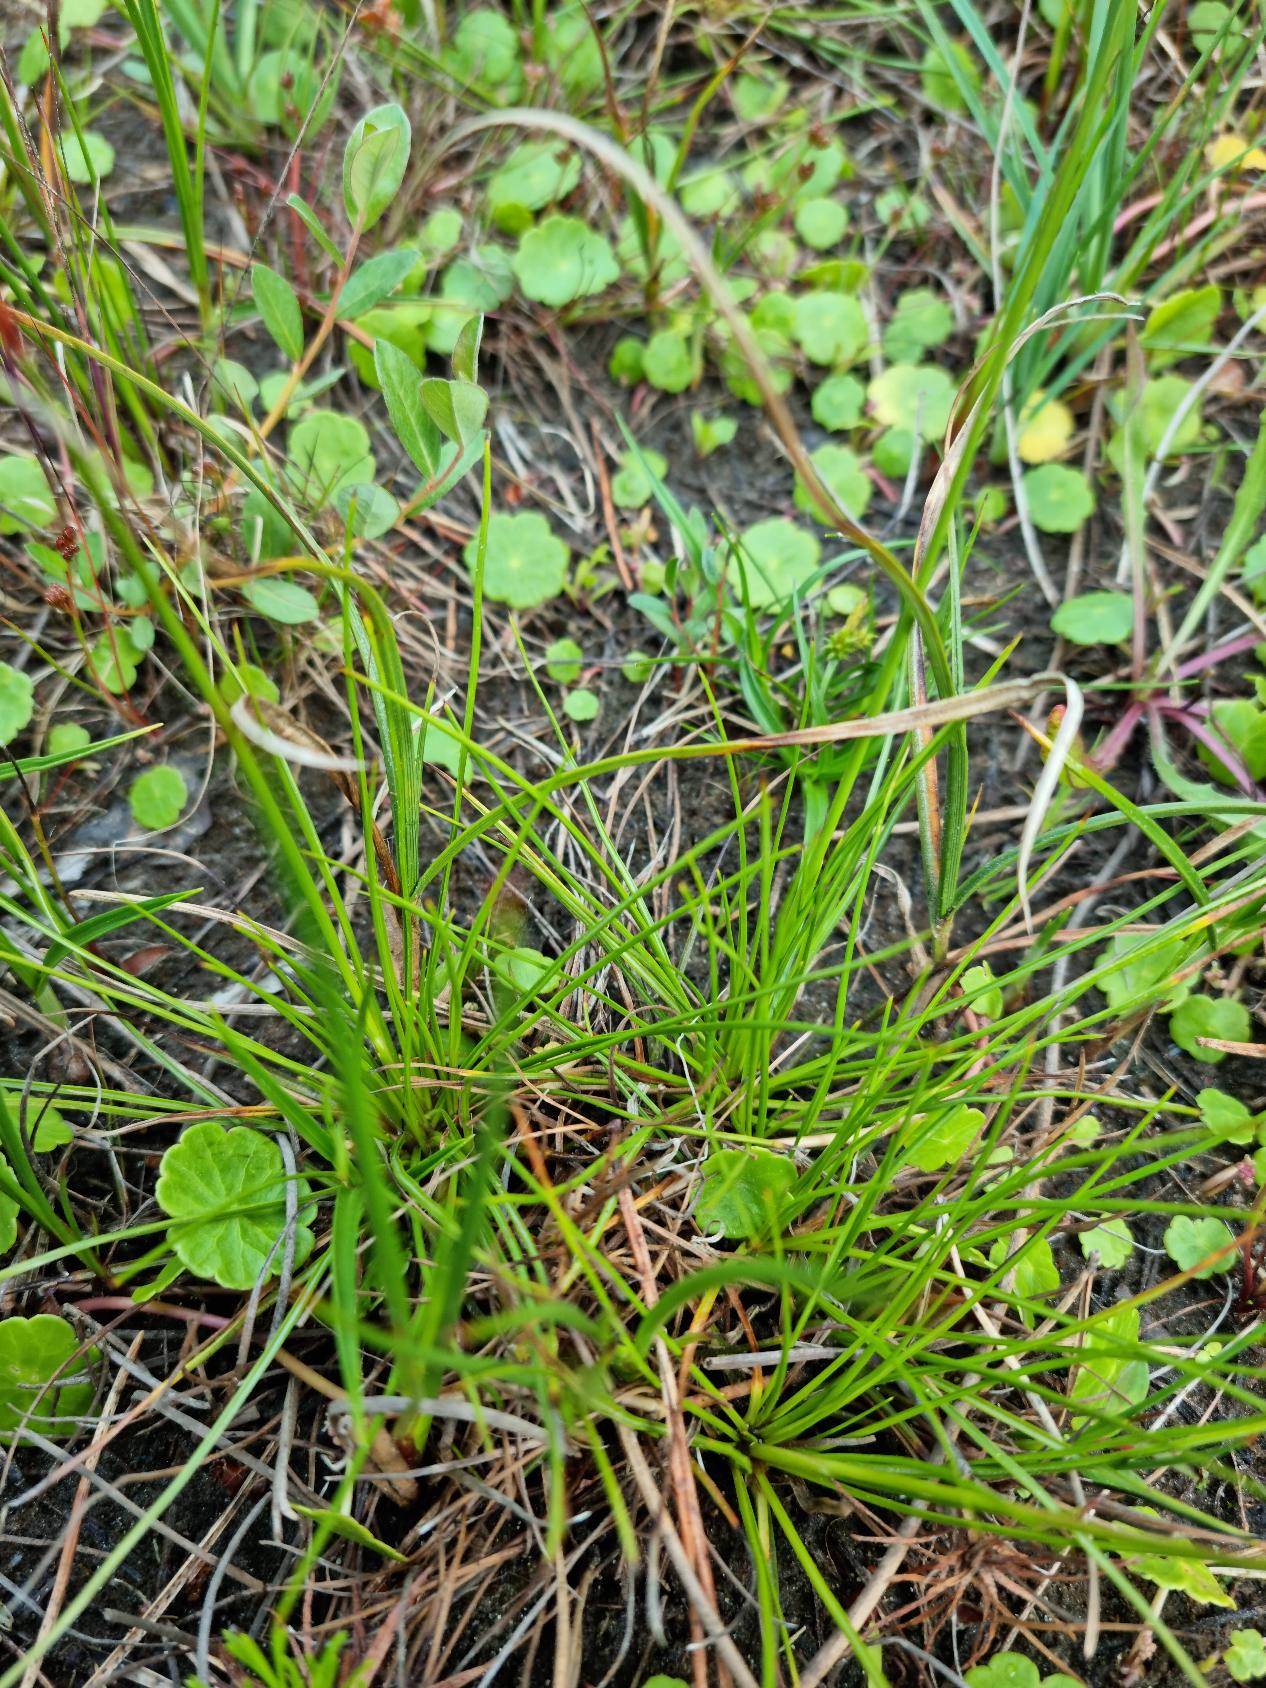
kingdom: Plantae
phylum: Tracheophyta
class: Liliopsida
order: Poales
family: Juncaceae
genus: Juncus
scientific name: Juncus squarrosus
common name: Børste-siv
